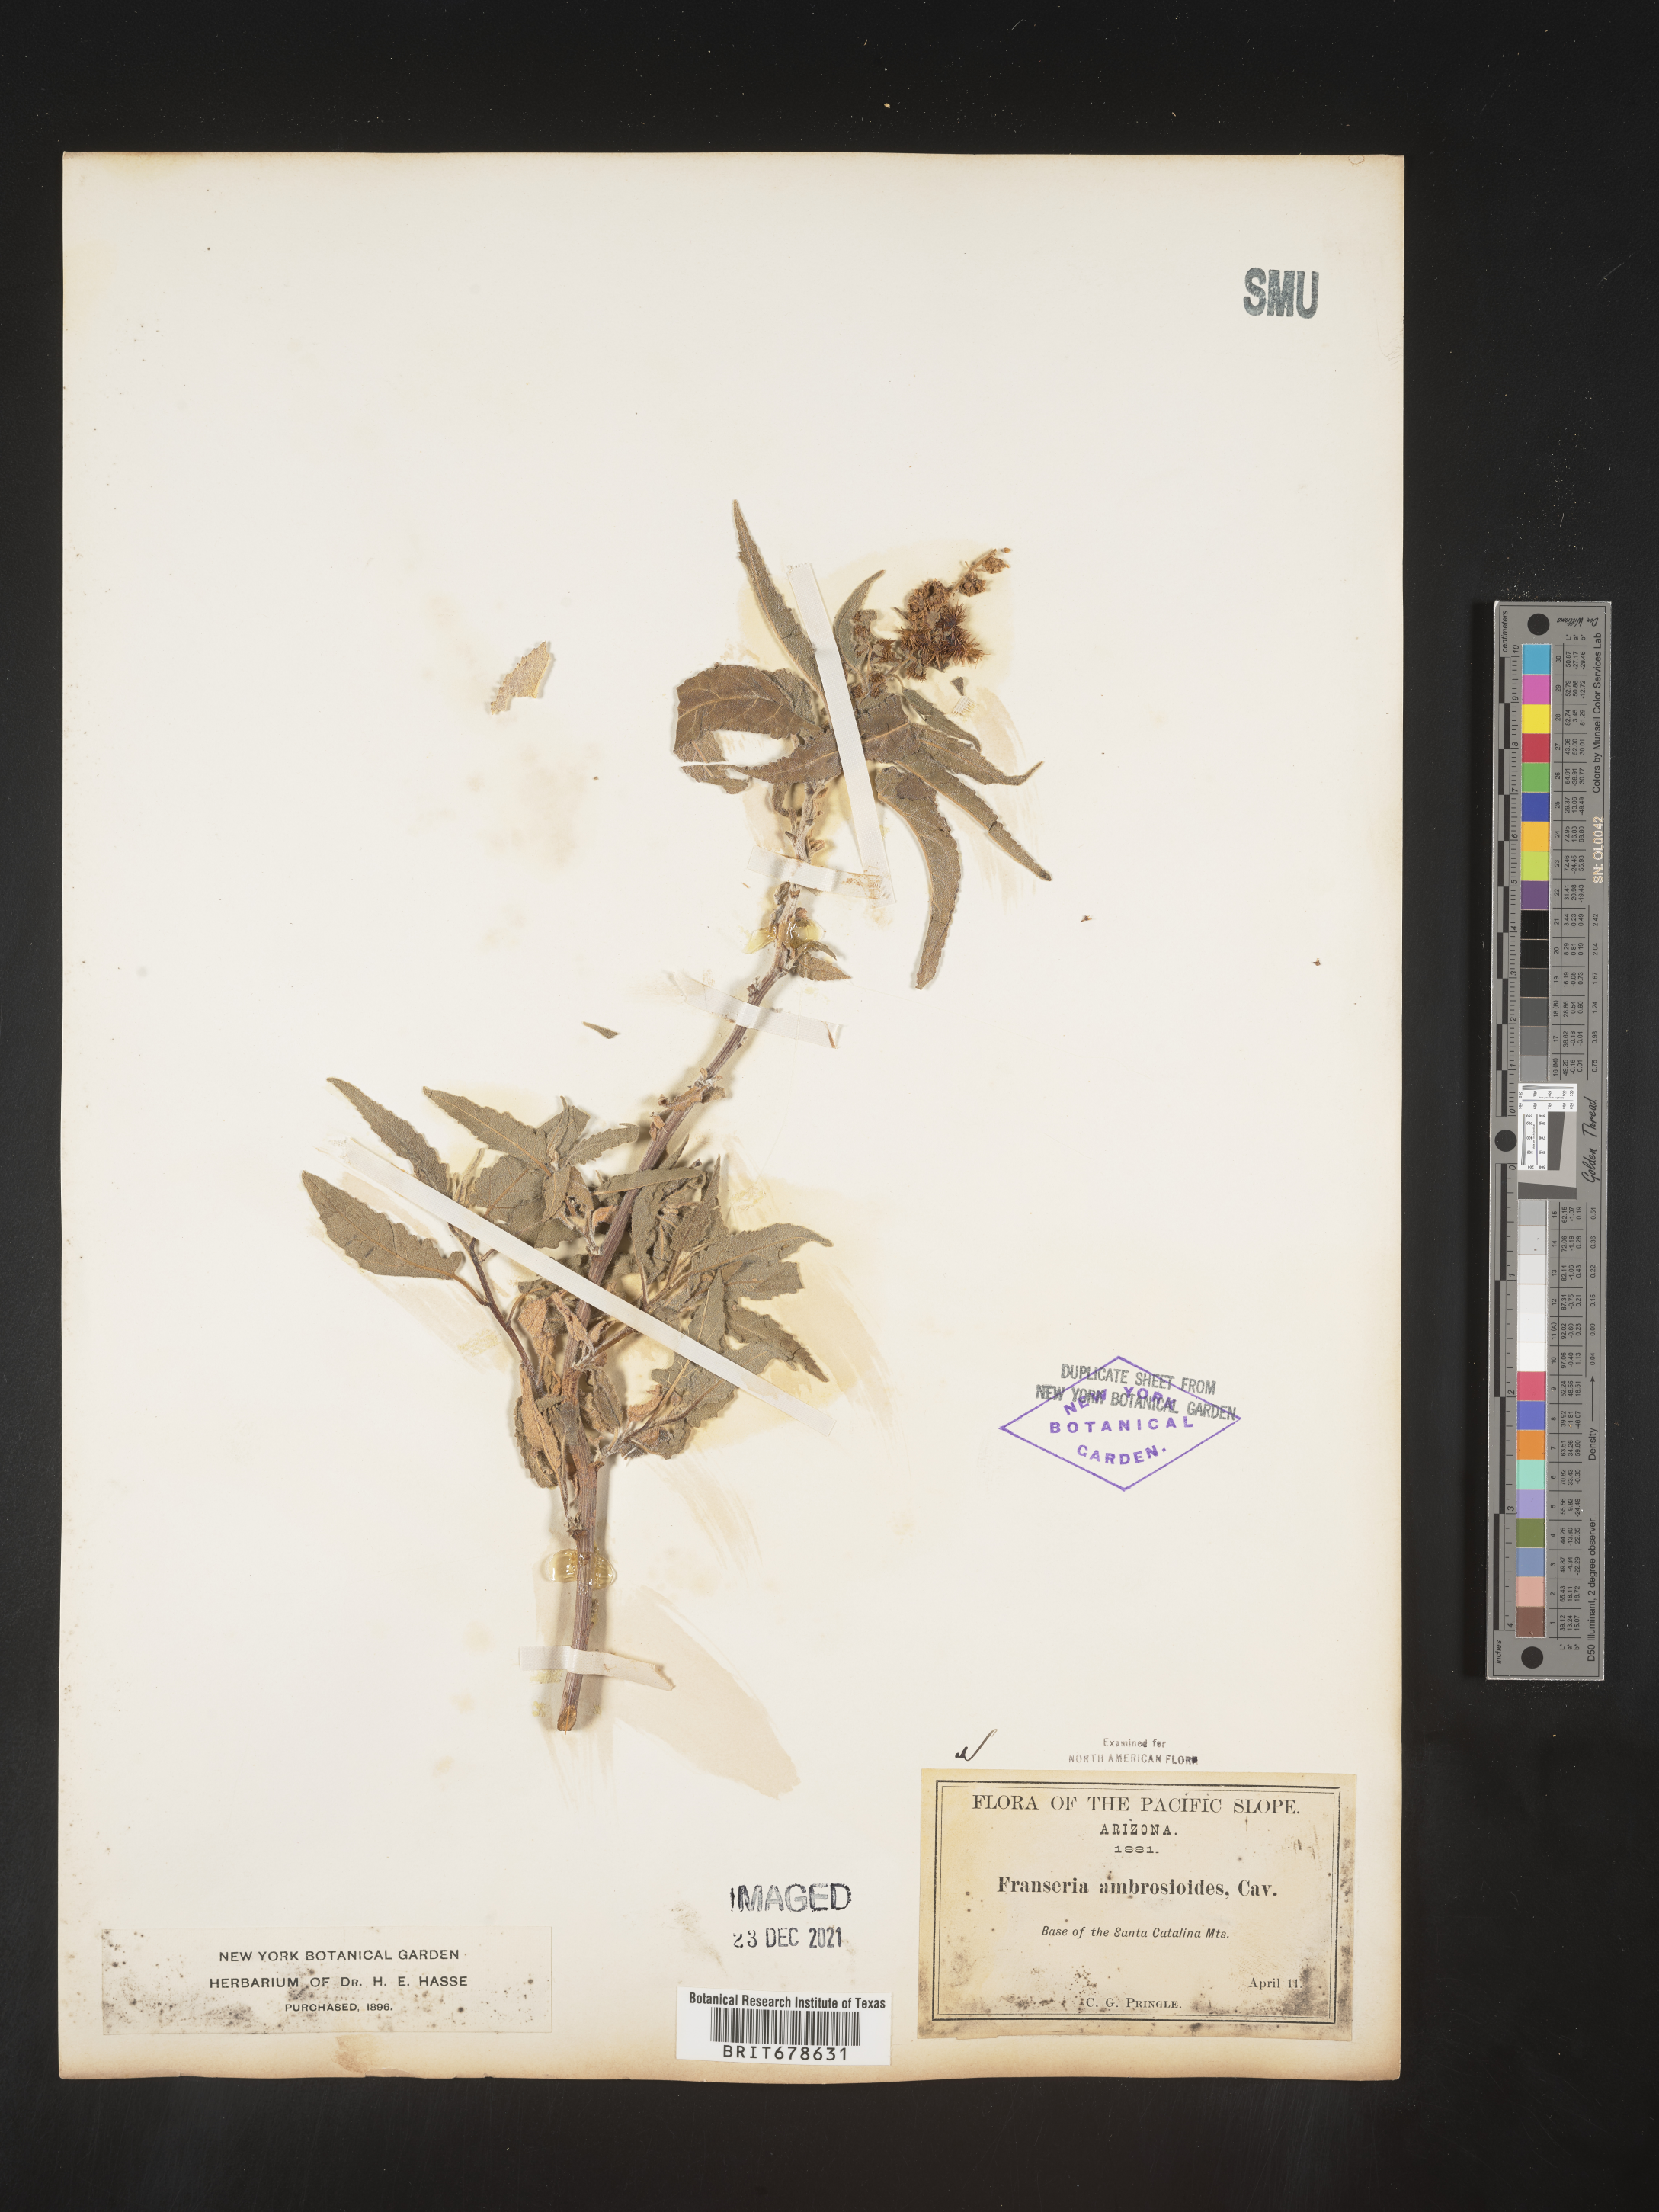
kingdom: Plantae
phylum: Tracheophyta
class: Magnoliopsida
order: Asterales
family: Asteraceae
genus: Ambrosia
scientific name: Ambrosia ambrosioides
